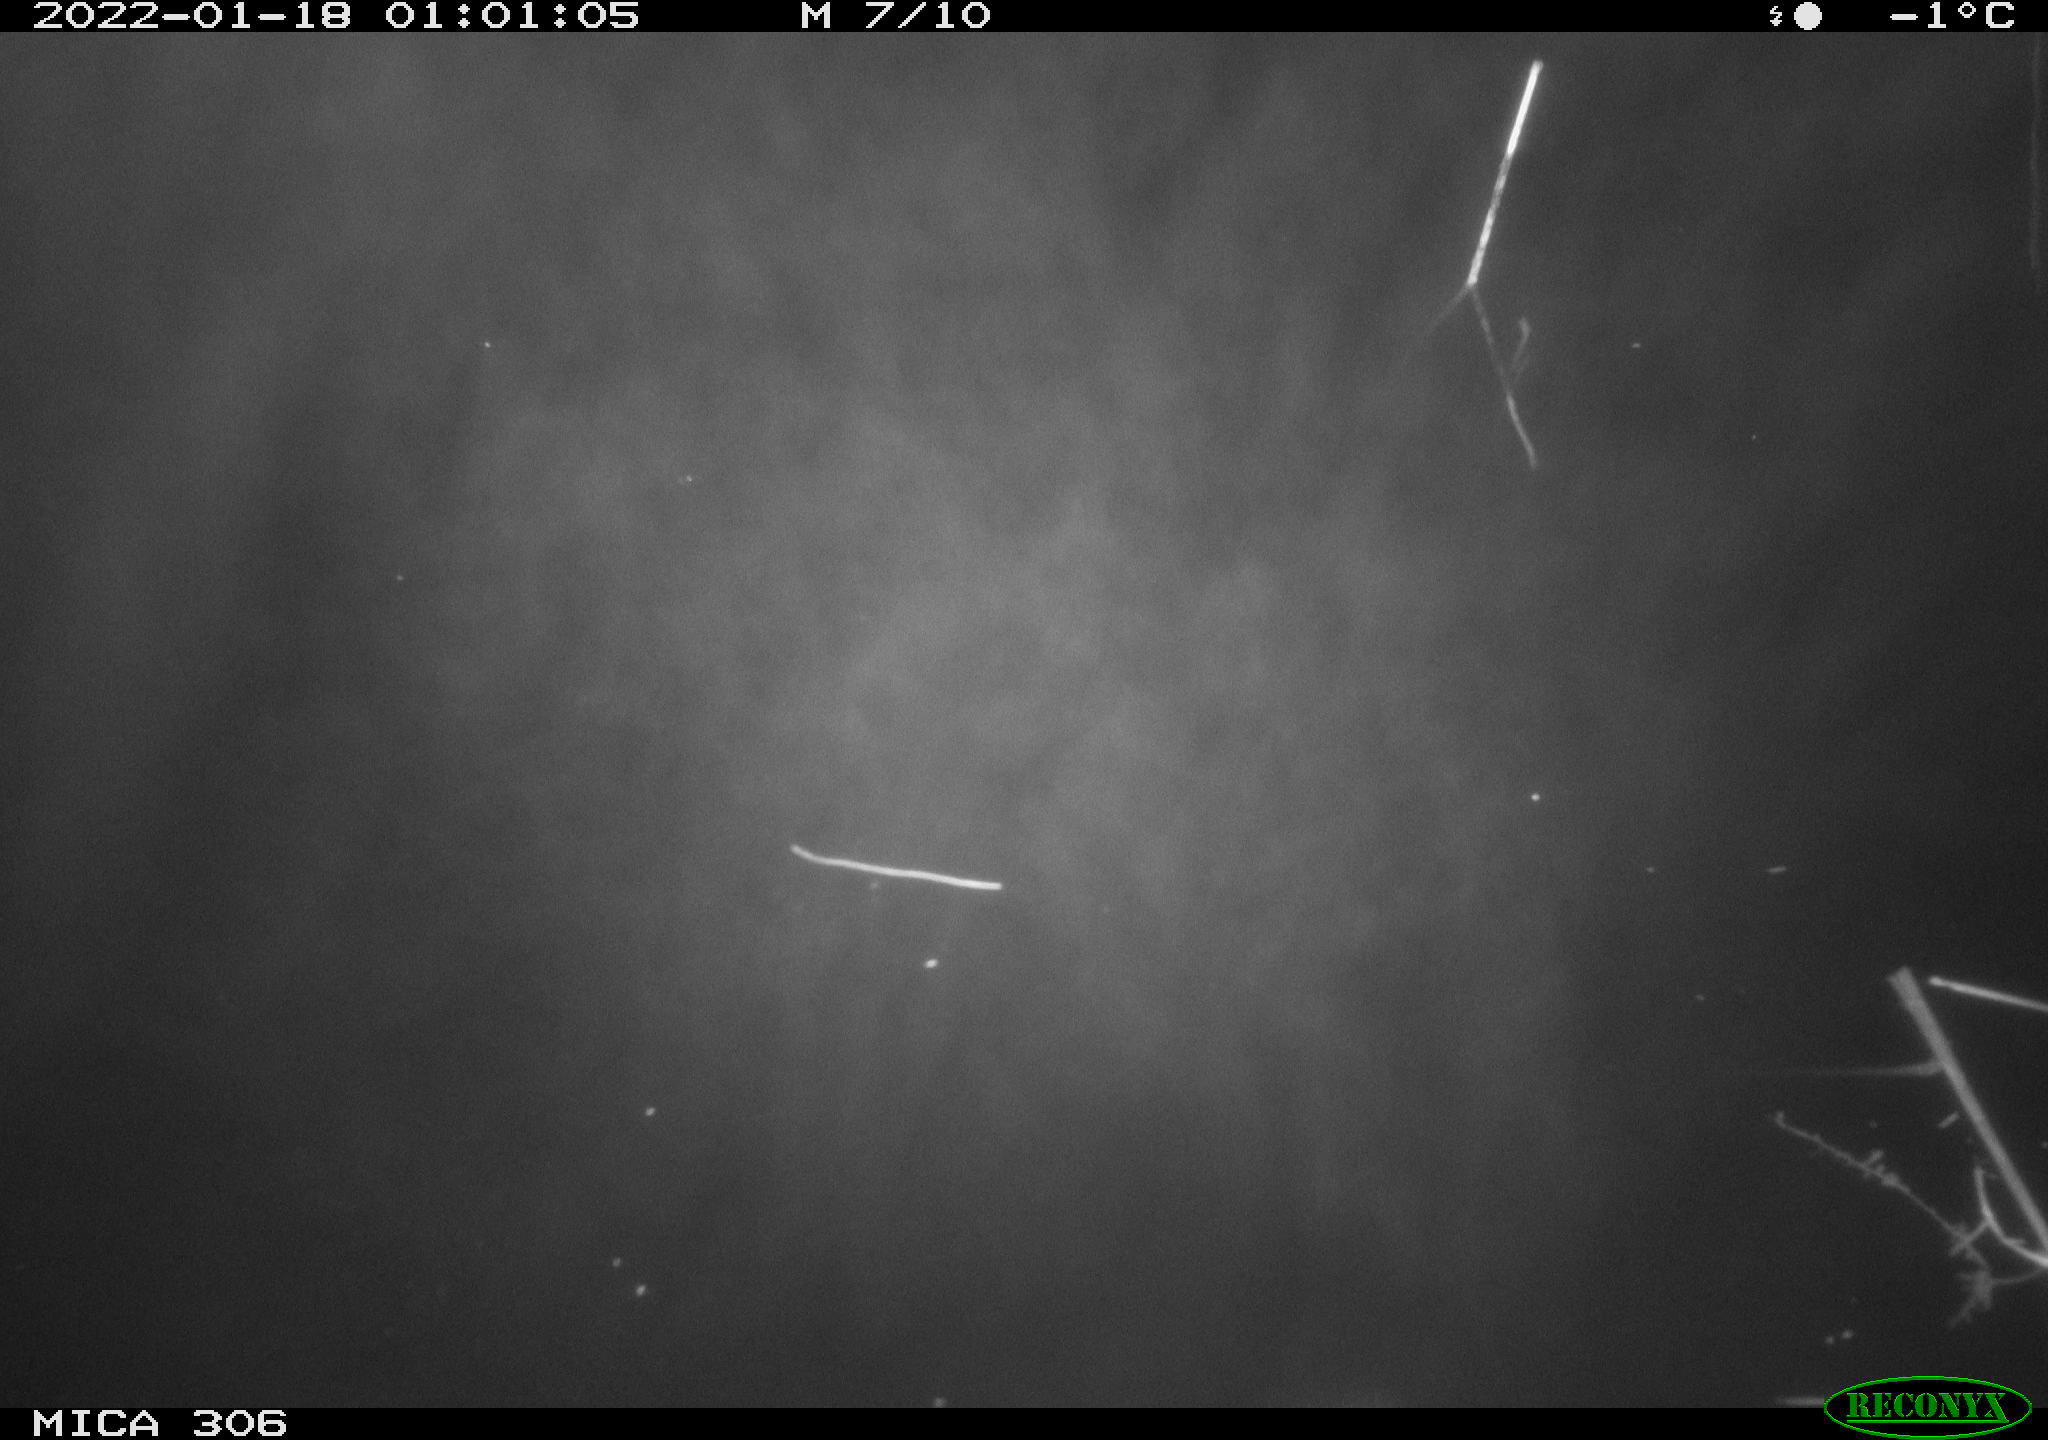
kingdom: Animalia
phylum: Chordata
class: Mammalia
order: Rodentia
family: Cricetidae
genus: Ondatra
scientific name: Ondatra zibethicus
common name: Muskrat
